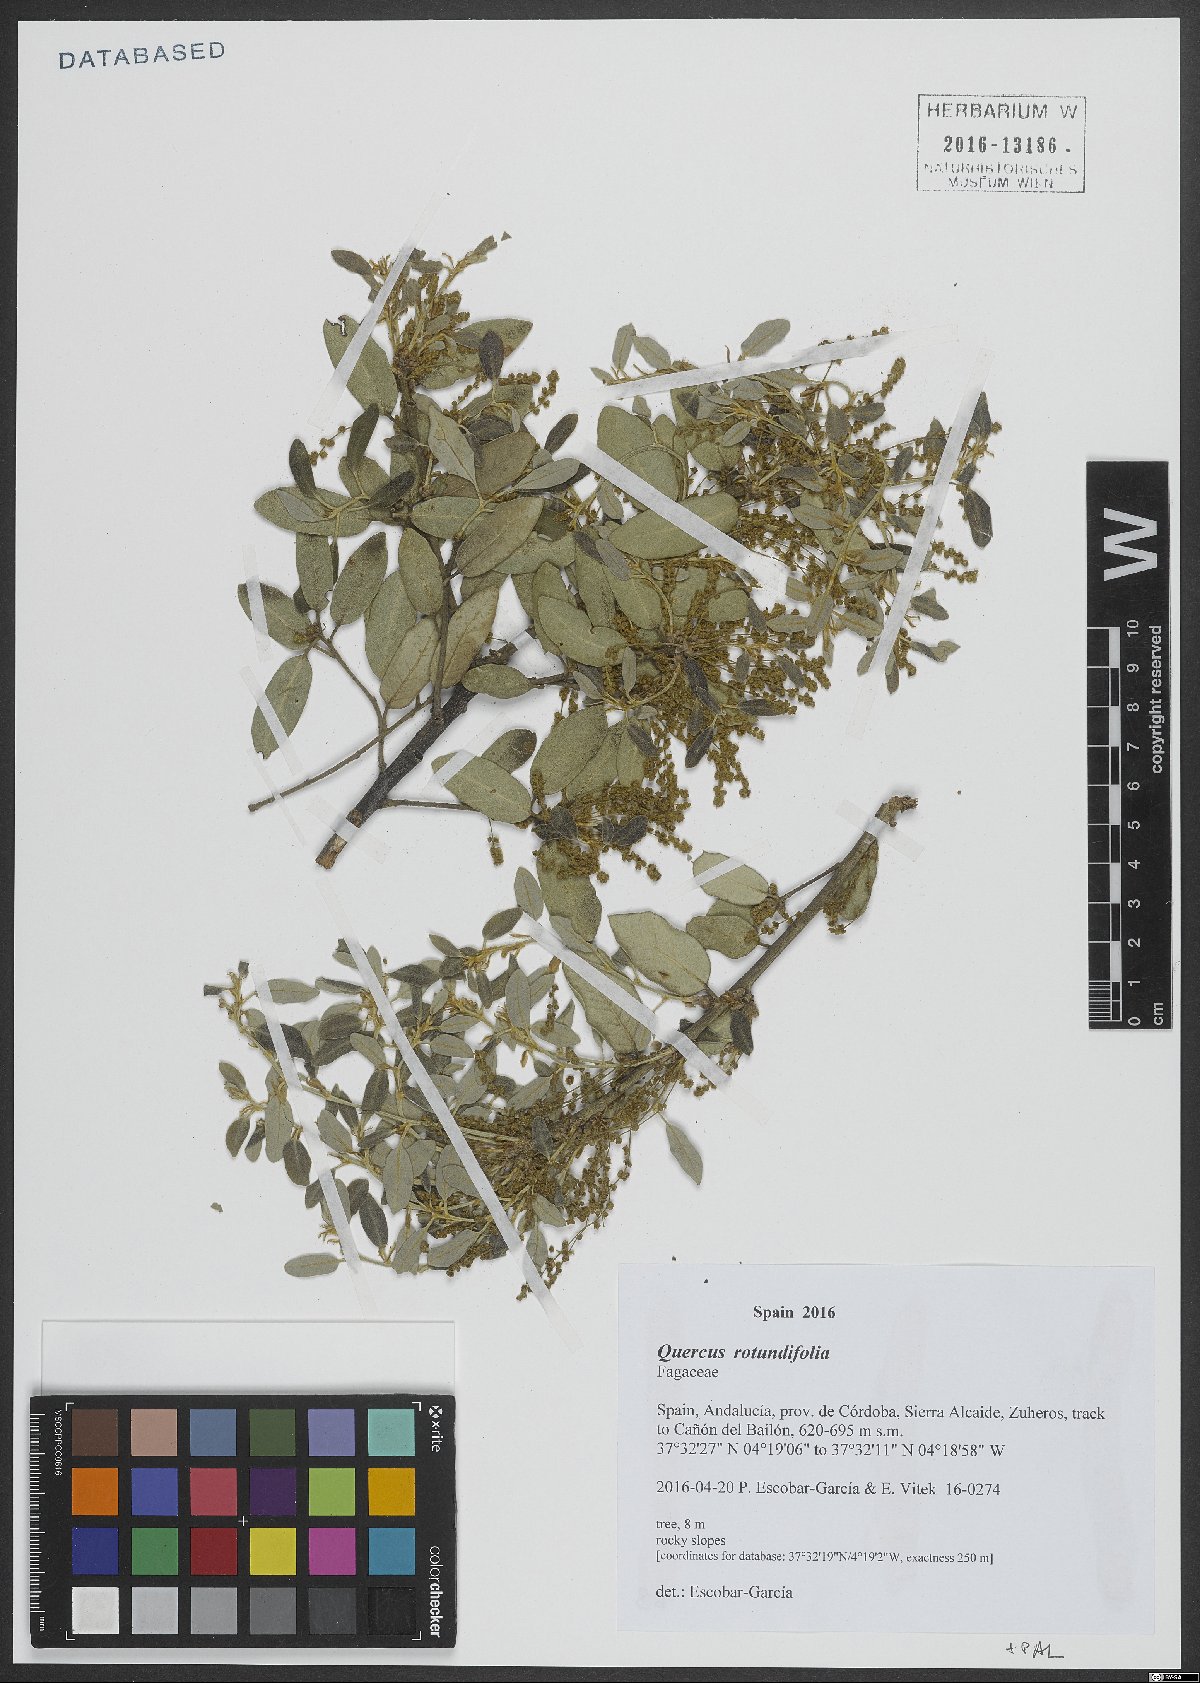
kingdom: Plantae
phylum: Tracheophyta
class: Magnoliopsida
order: Fagales
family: Fagaceae
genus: Quercus
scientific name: Quercus rotundifolia
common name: Holm oak
